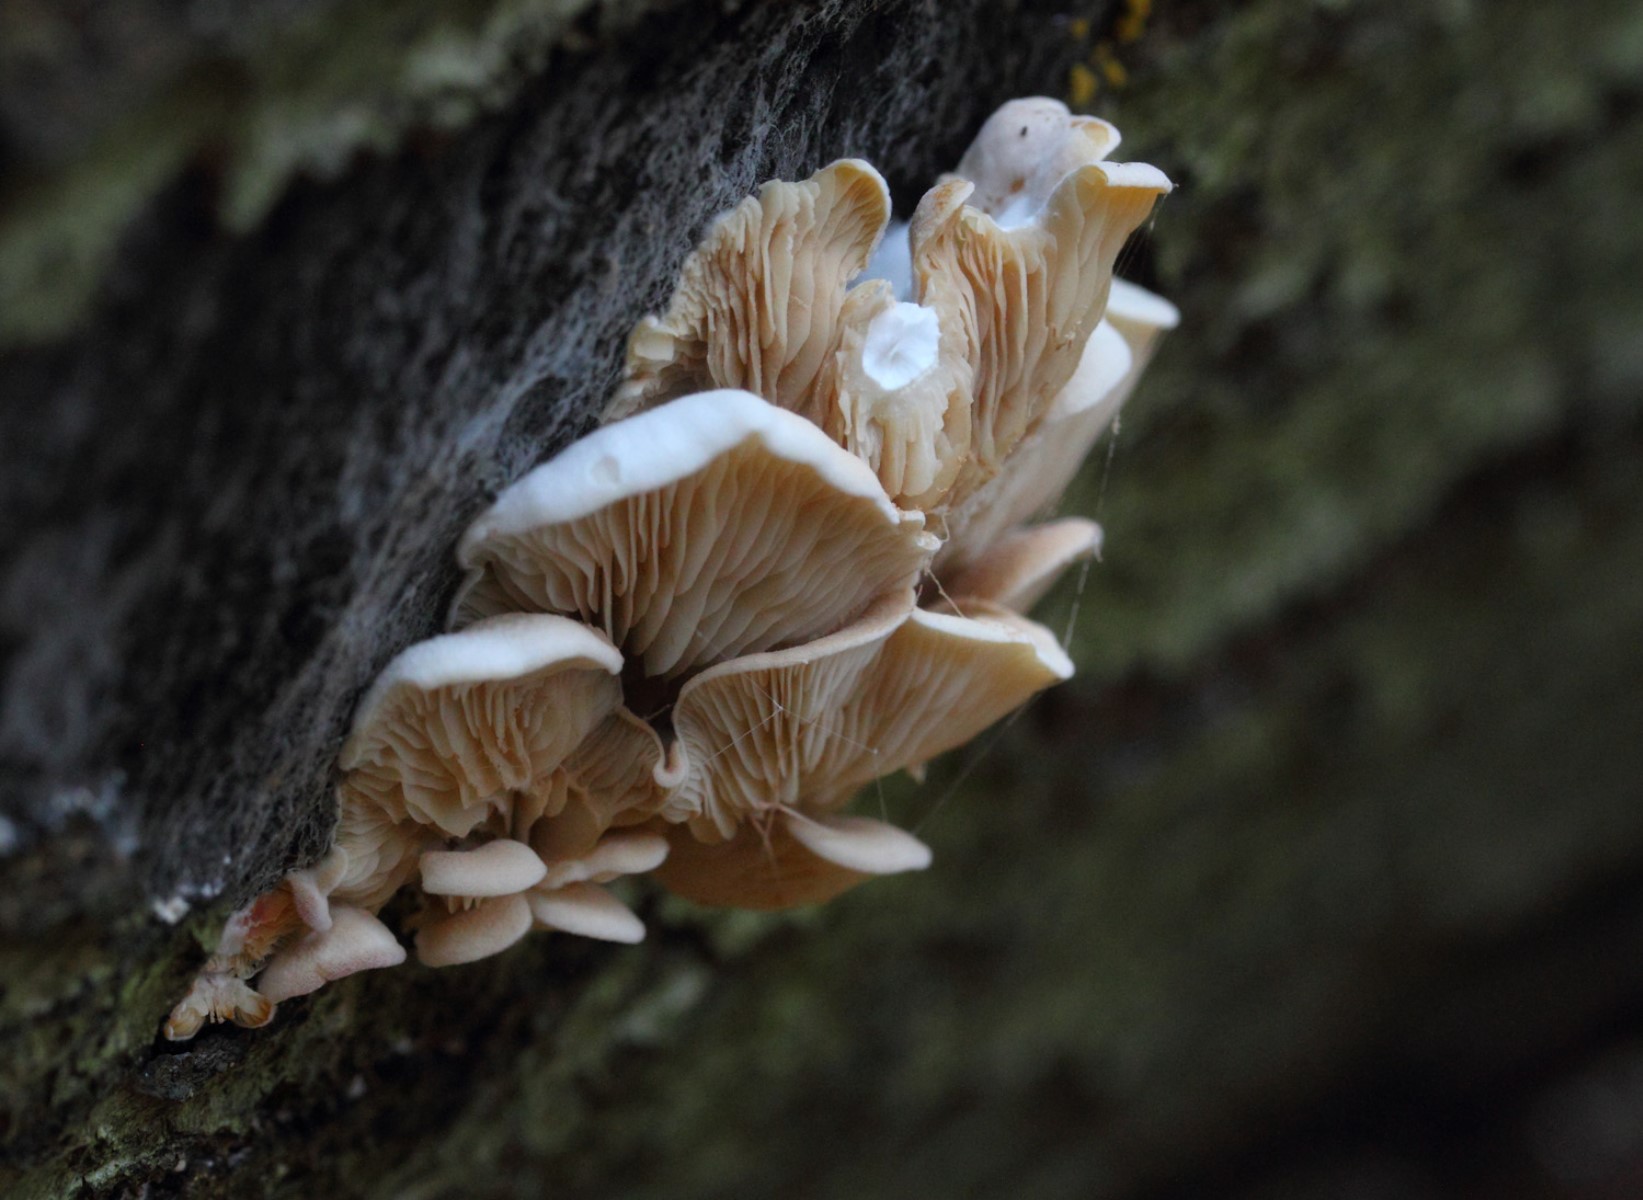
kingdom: Fungi
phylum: Basidiomycota
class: Agaricomycetes
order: Agaricales
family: Crepidotaceae
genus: Crepidotus
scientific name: Crepidotus
